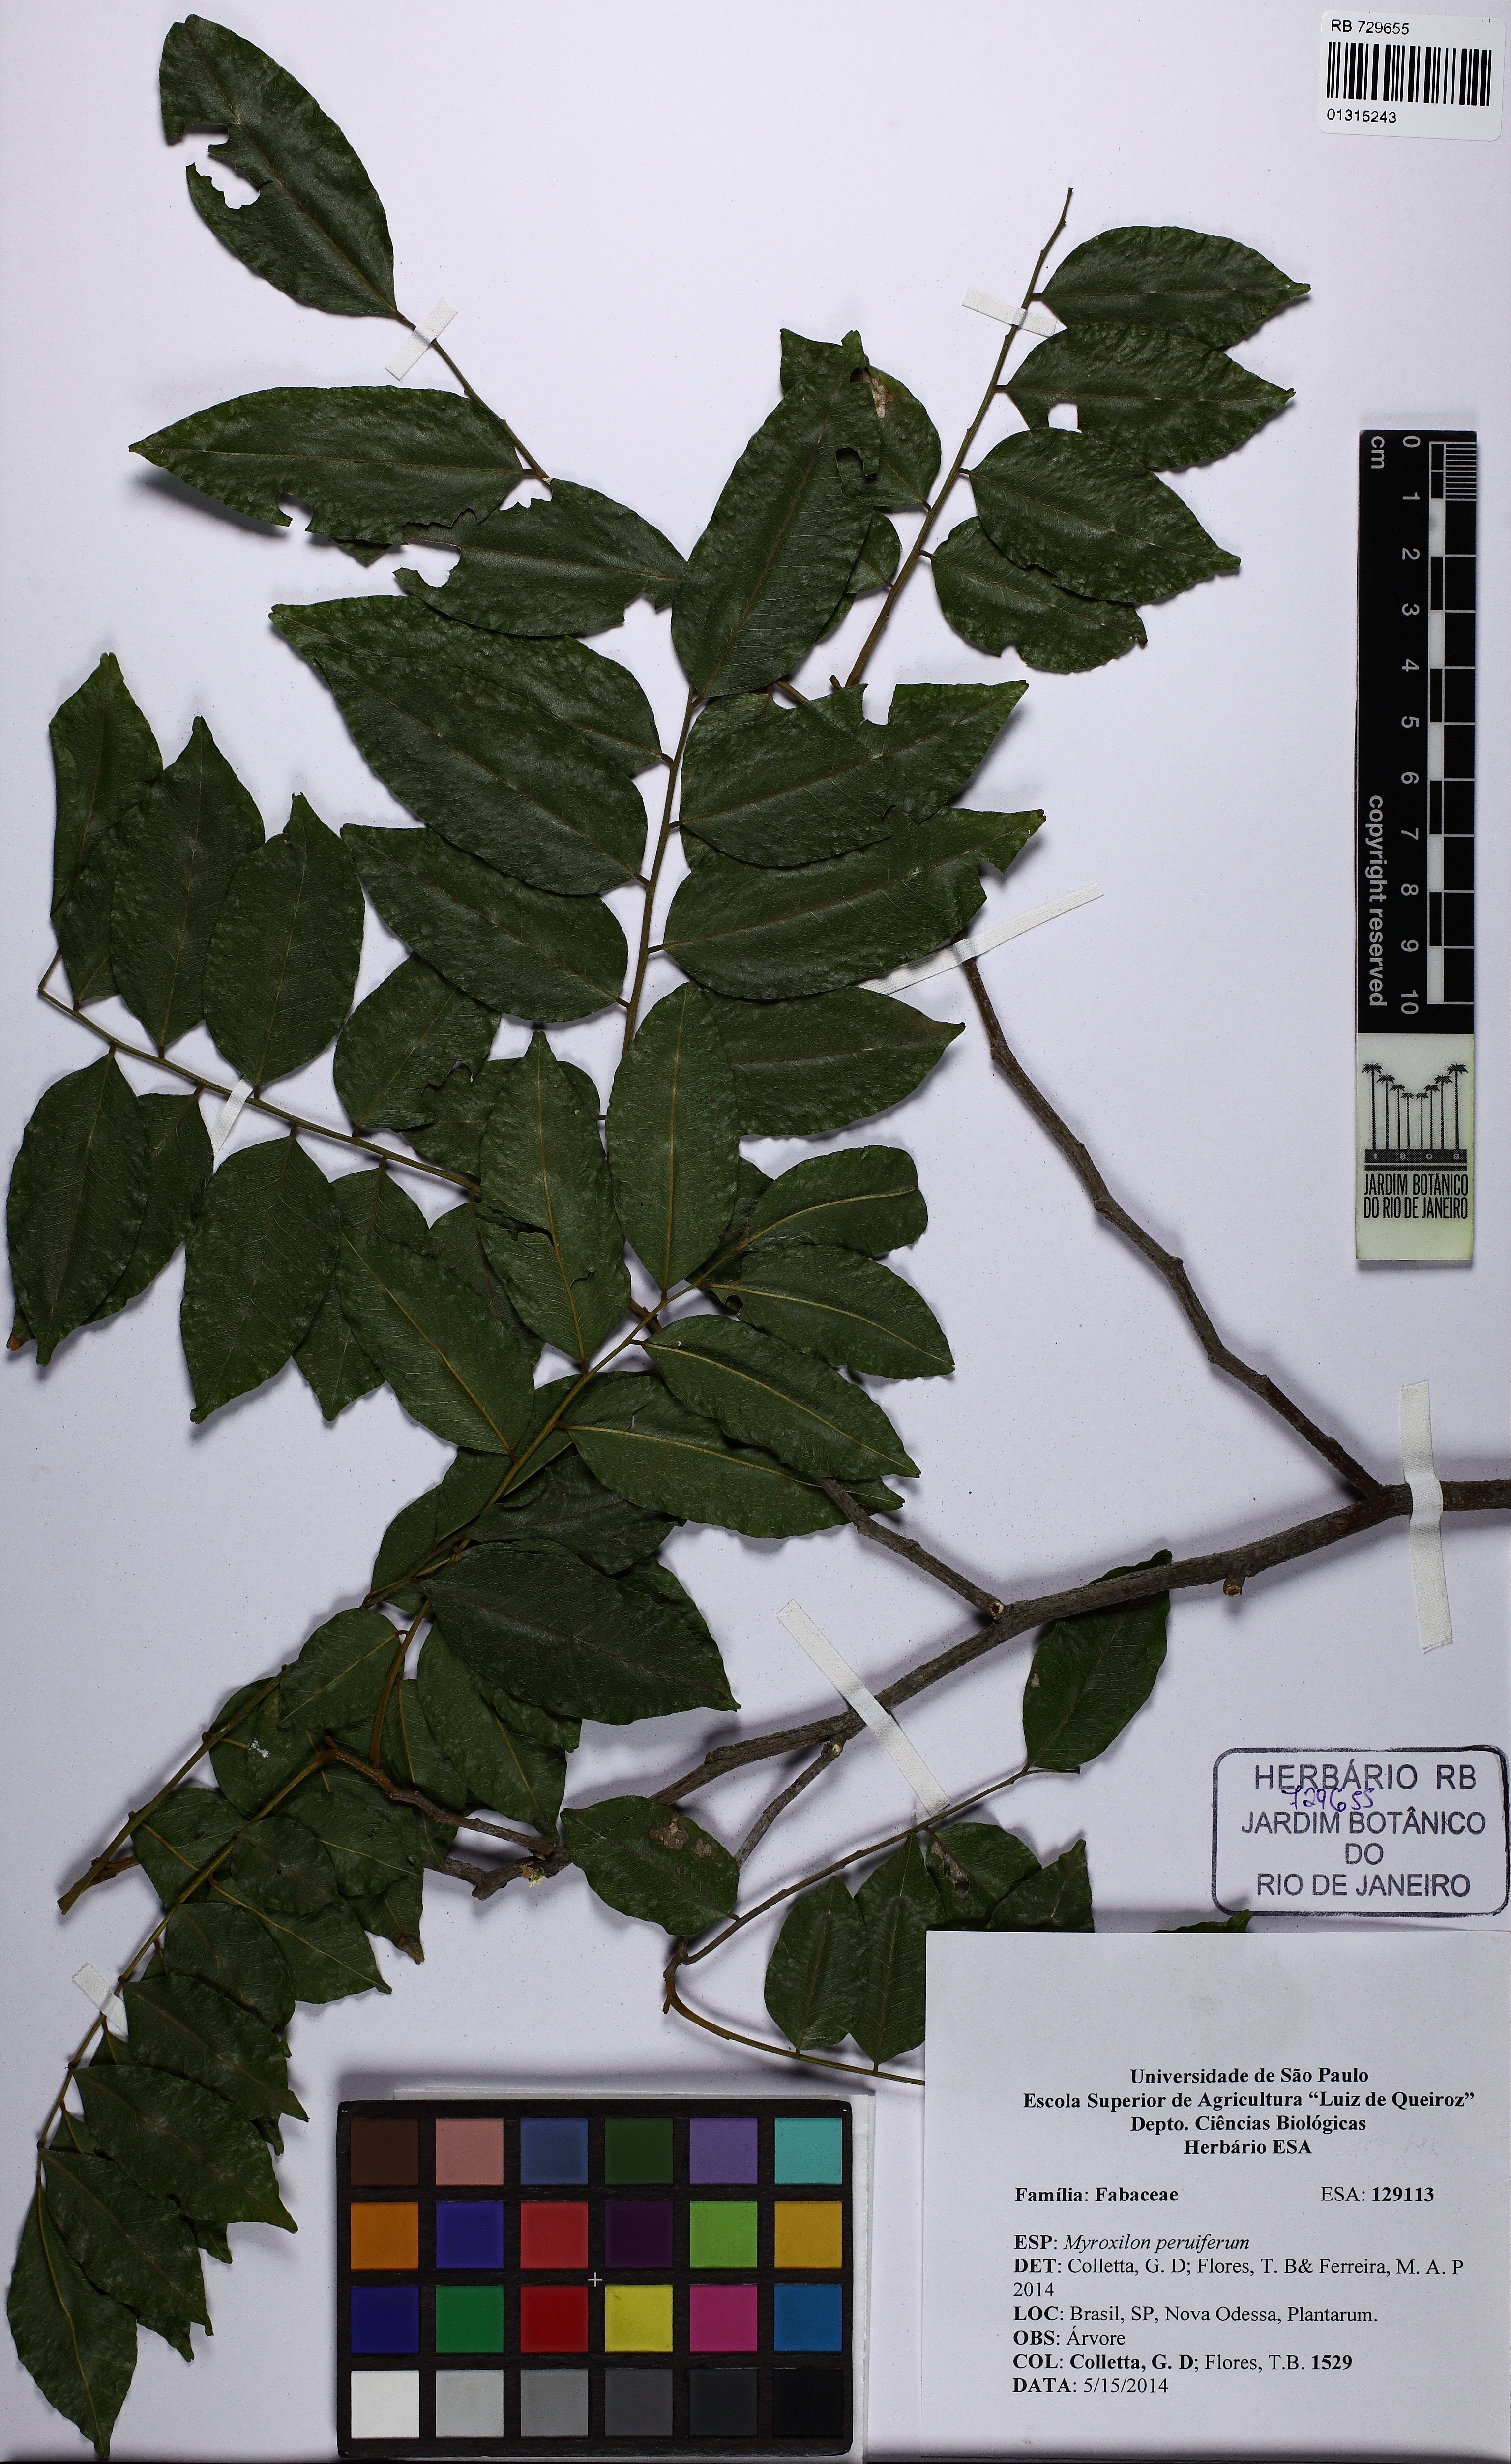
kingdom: Plantae
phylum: Tracheophyta
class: Magnoliopsida
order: Fabales
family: Fabaceae
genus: Myroxylon
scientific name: Myroxylon peruiferum
